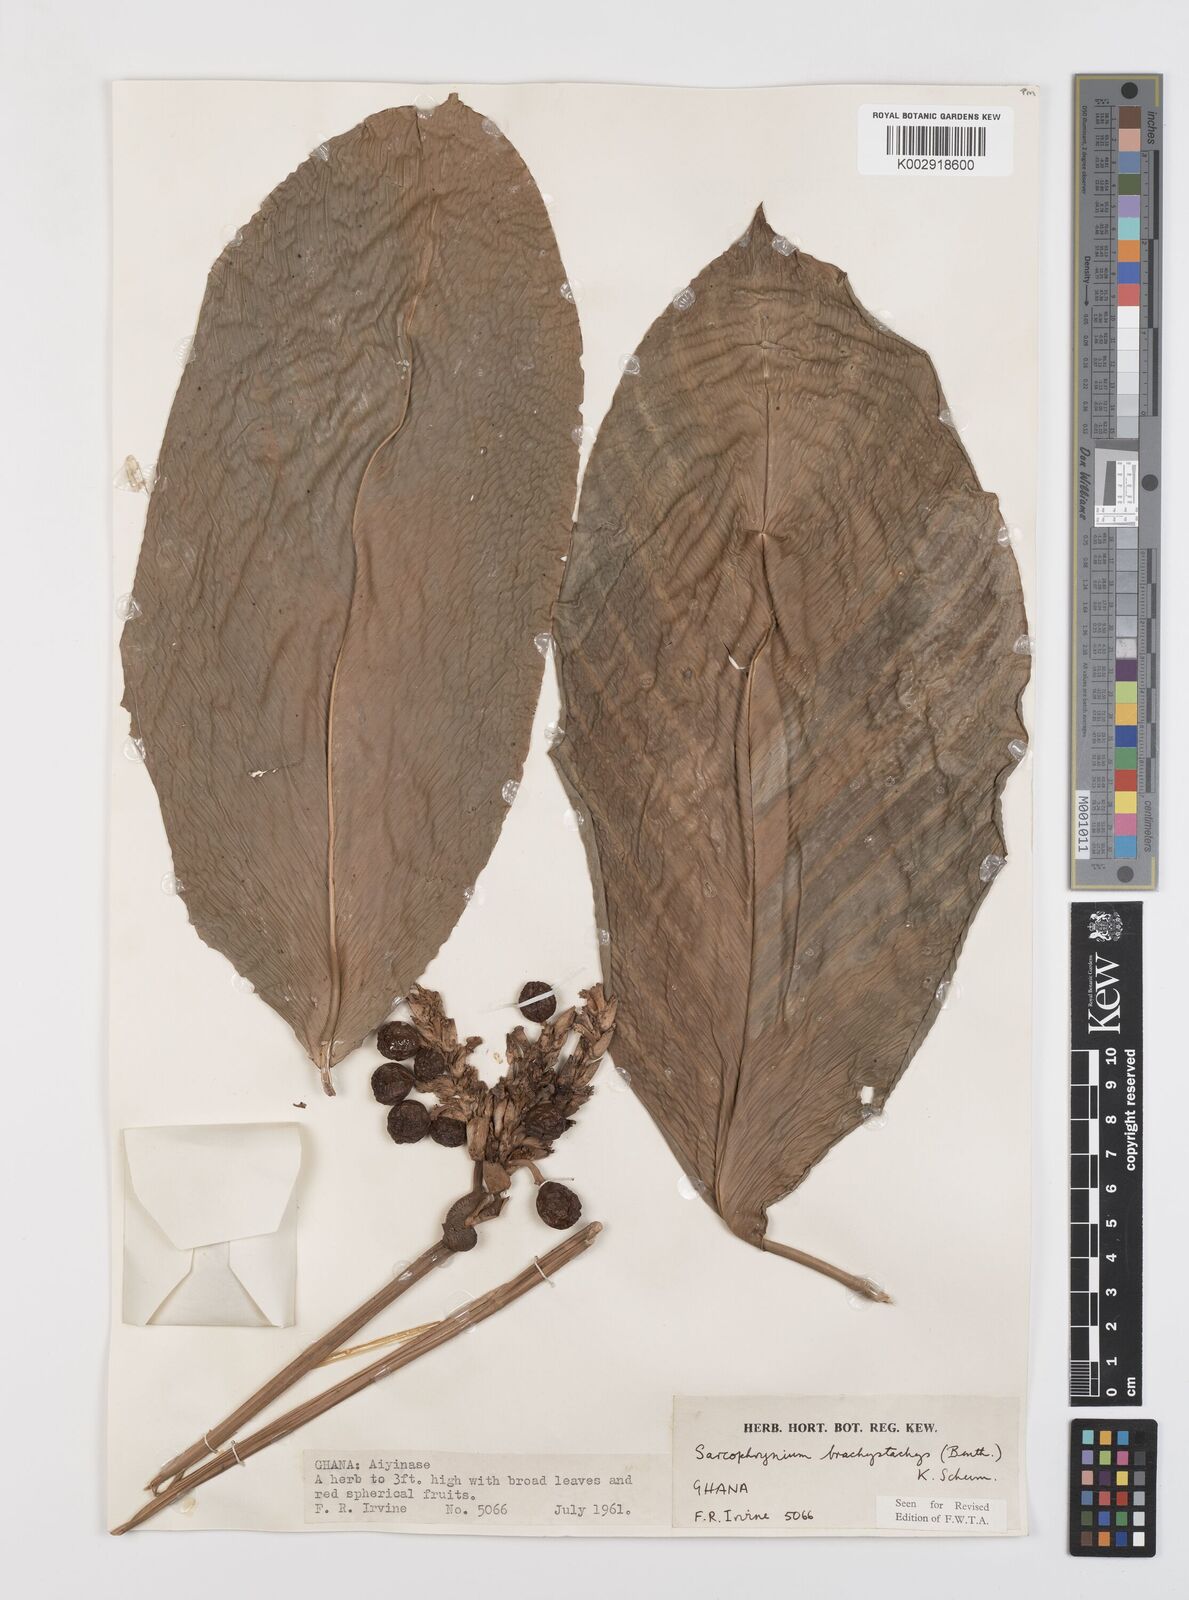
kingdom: Plantae
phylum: Tracheophyta
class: Liliopsida
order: Zingiberales
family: Marantaceae
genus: Sarcophrynium
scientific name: Sarcophrynium brachystachyum
